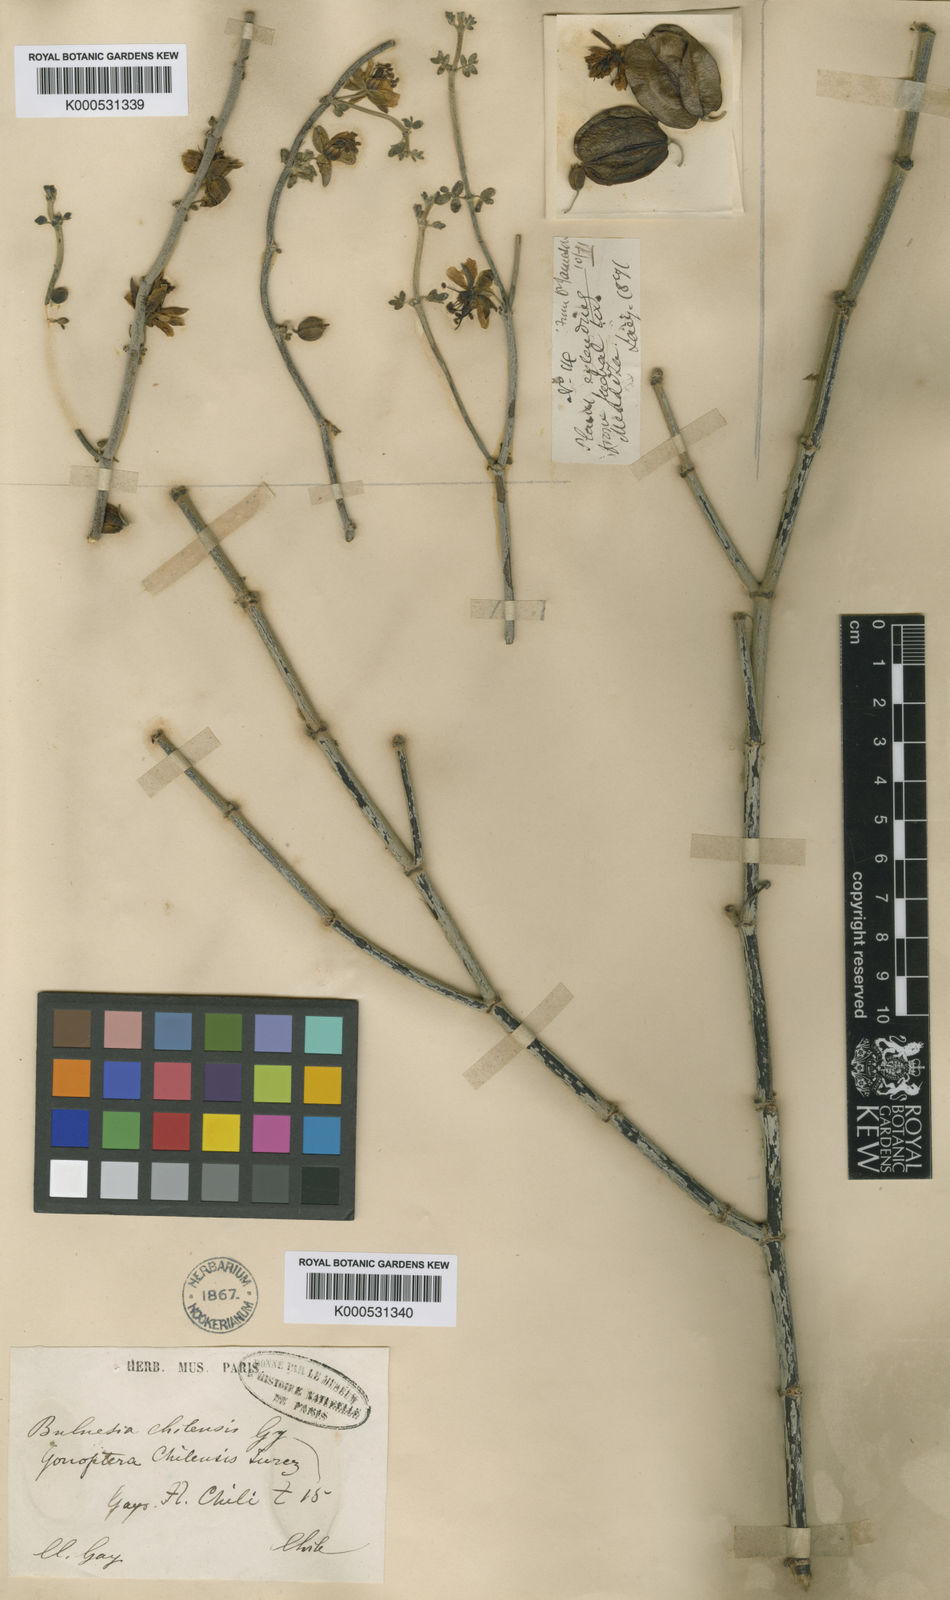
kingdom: Plantae
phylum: Tracheophyta
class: Magnoliopsida
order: Zygophyllales
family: Zygophyllaceae
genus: Bulnesia
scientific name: Bulnesia chilensis
